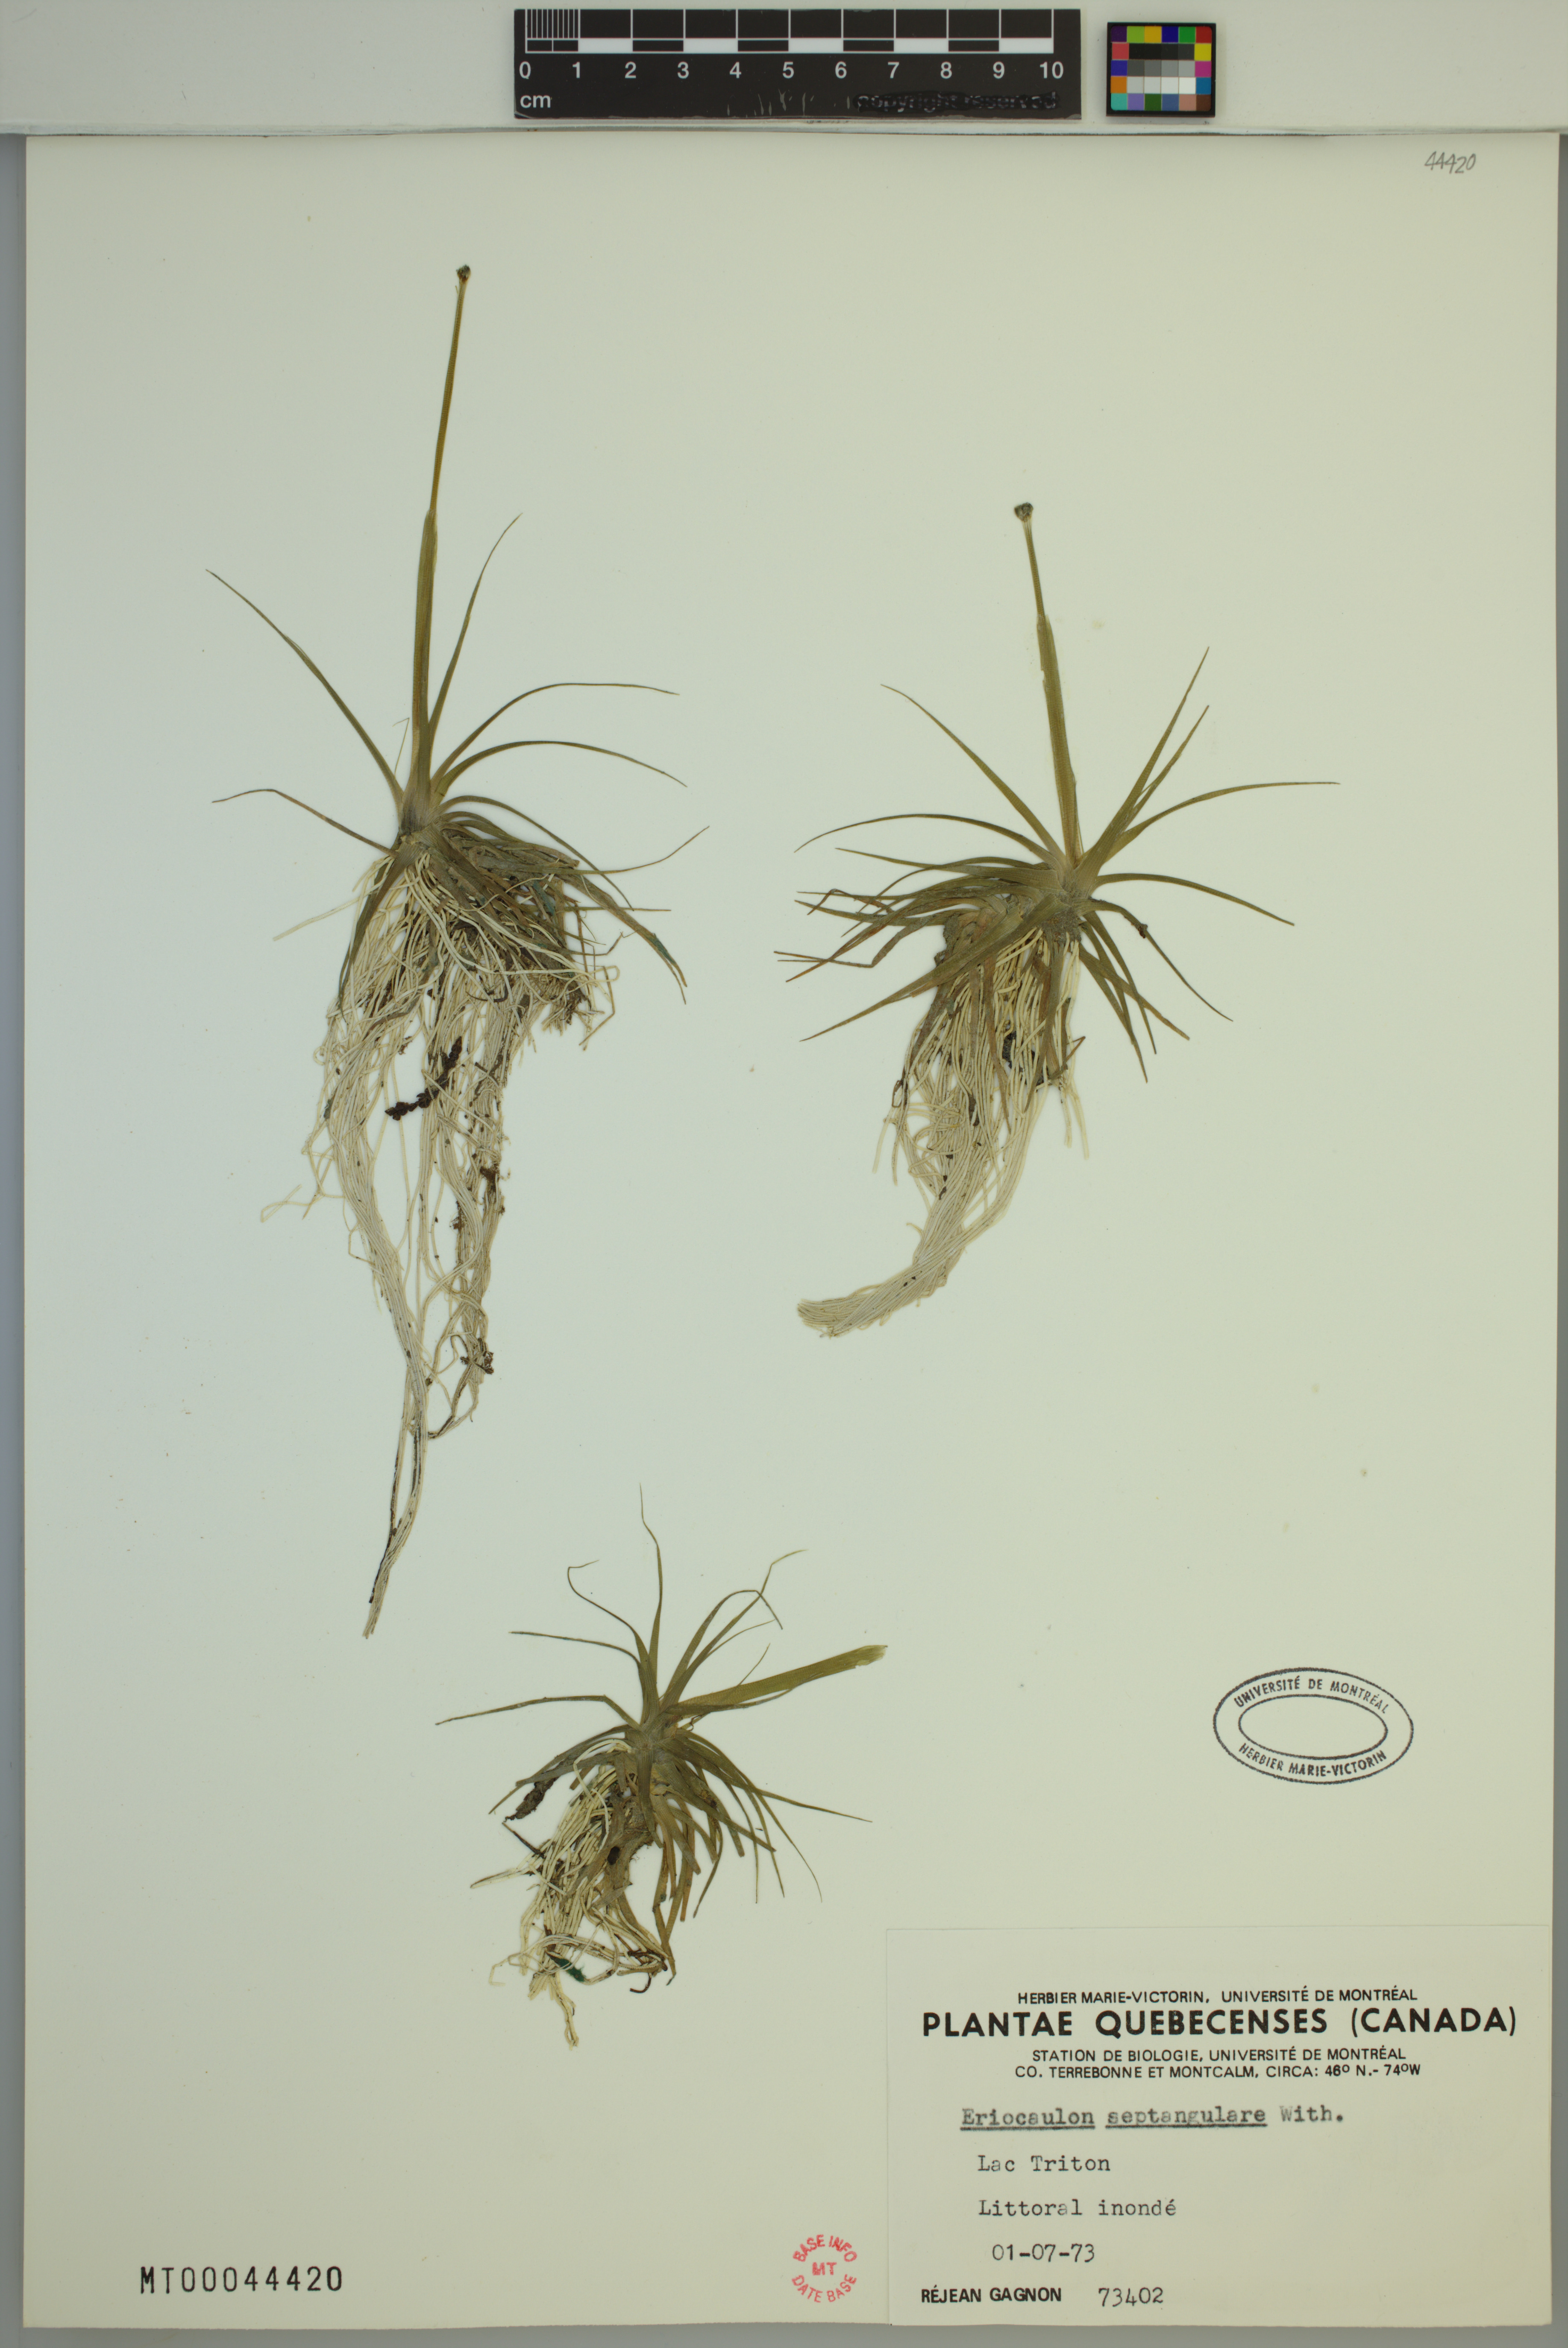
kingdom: Plantae
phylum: Tracheophyta
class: Liliopsida
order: Poales
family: Eriocaulaceae
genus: Eriocaulon
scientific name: Eriocaulon aquaticum
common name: Pipewort
